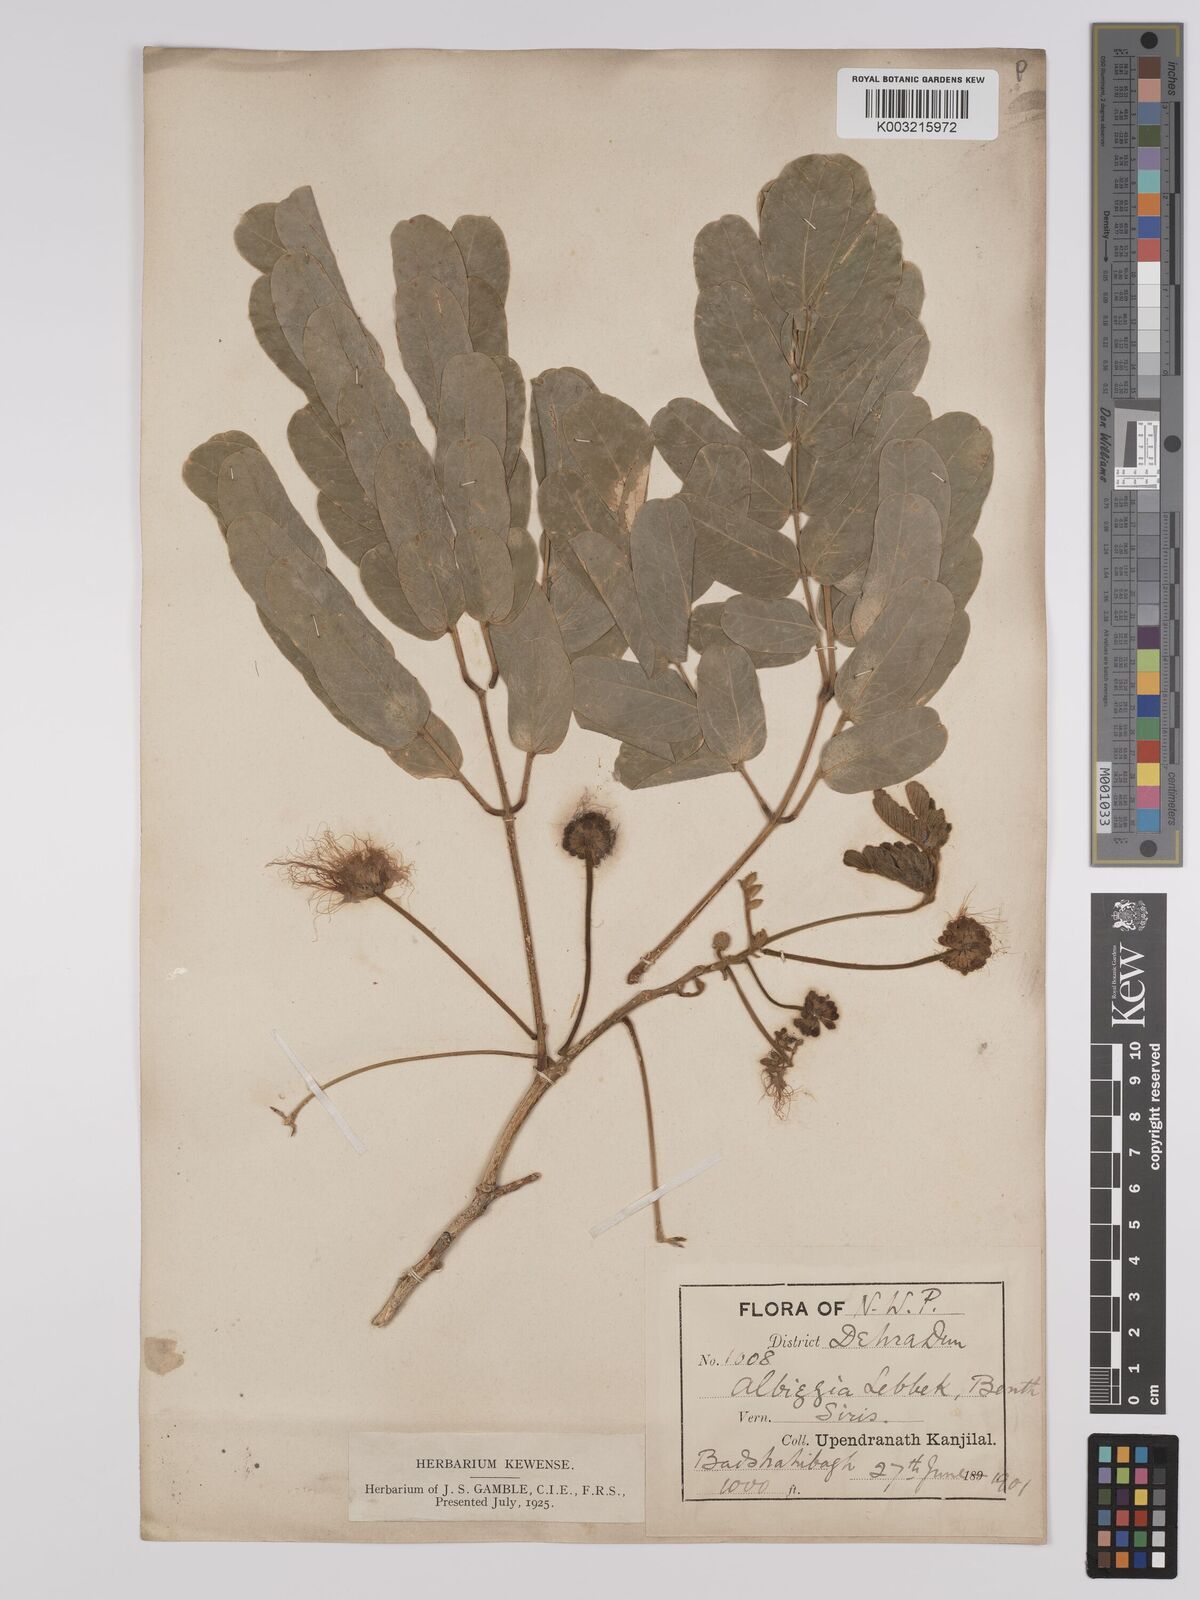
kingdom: Plantae
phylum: Tracheophyta
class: Magnoliopsida
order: Fabales
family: Fabaceae
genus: Albizia
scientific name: Albizia lebbeck
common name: Woman's tongue
